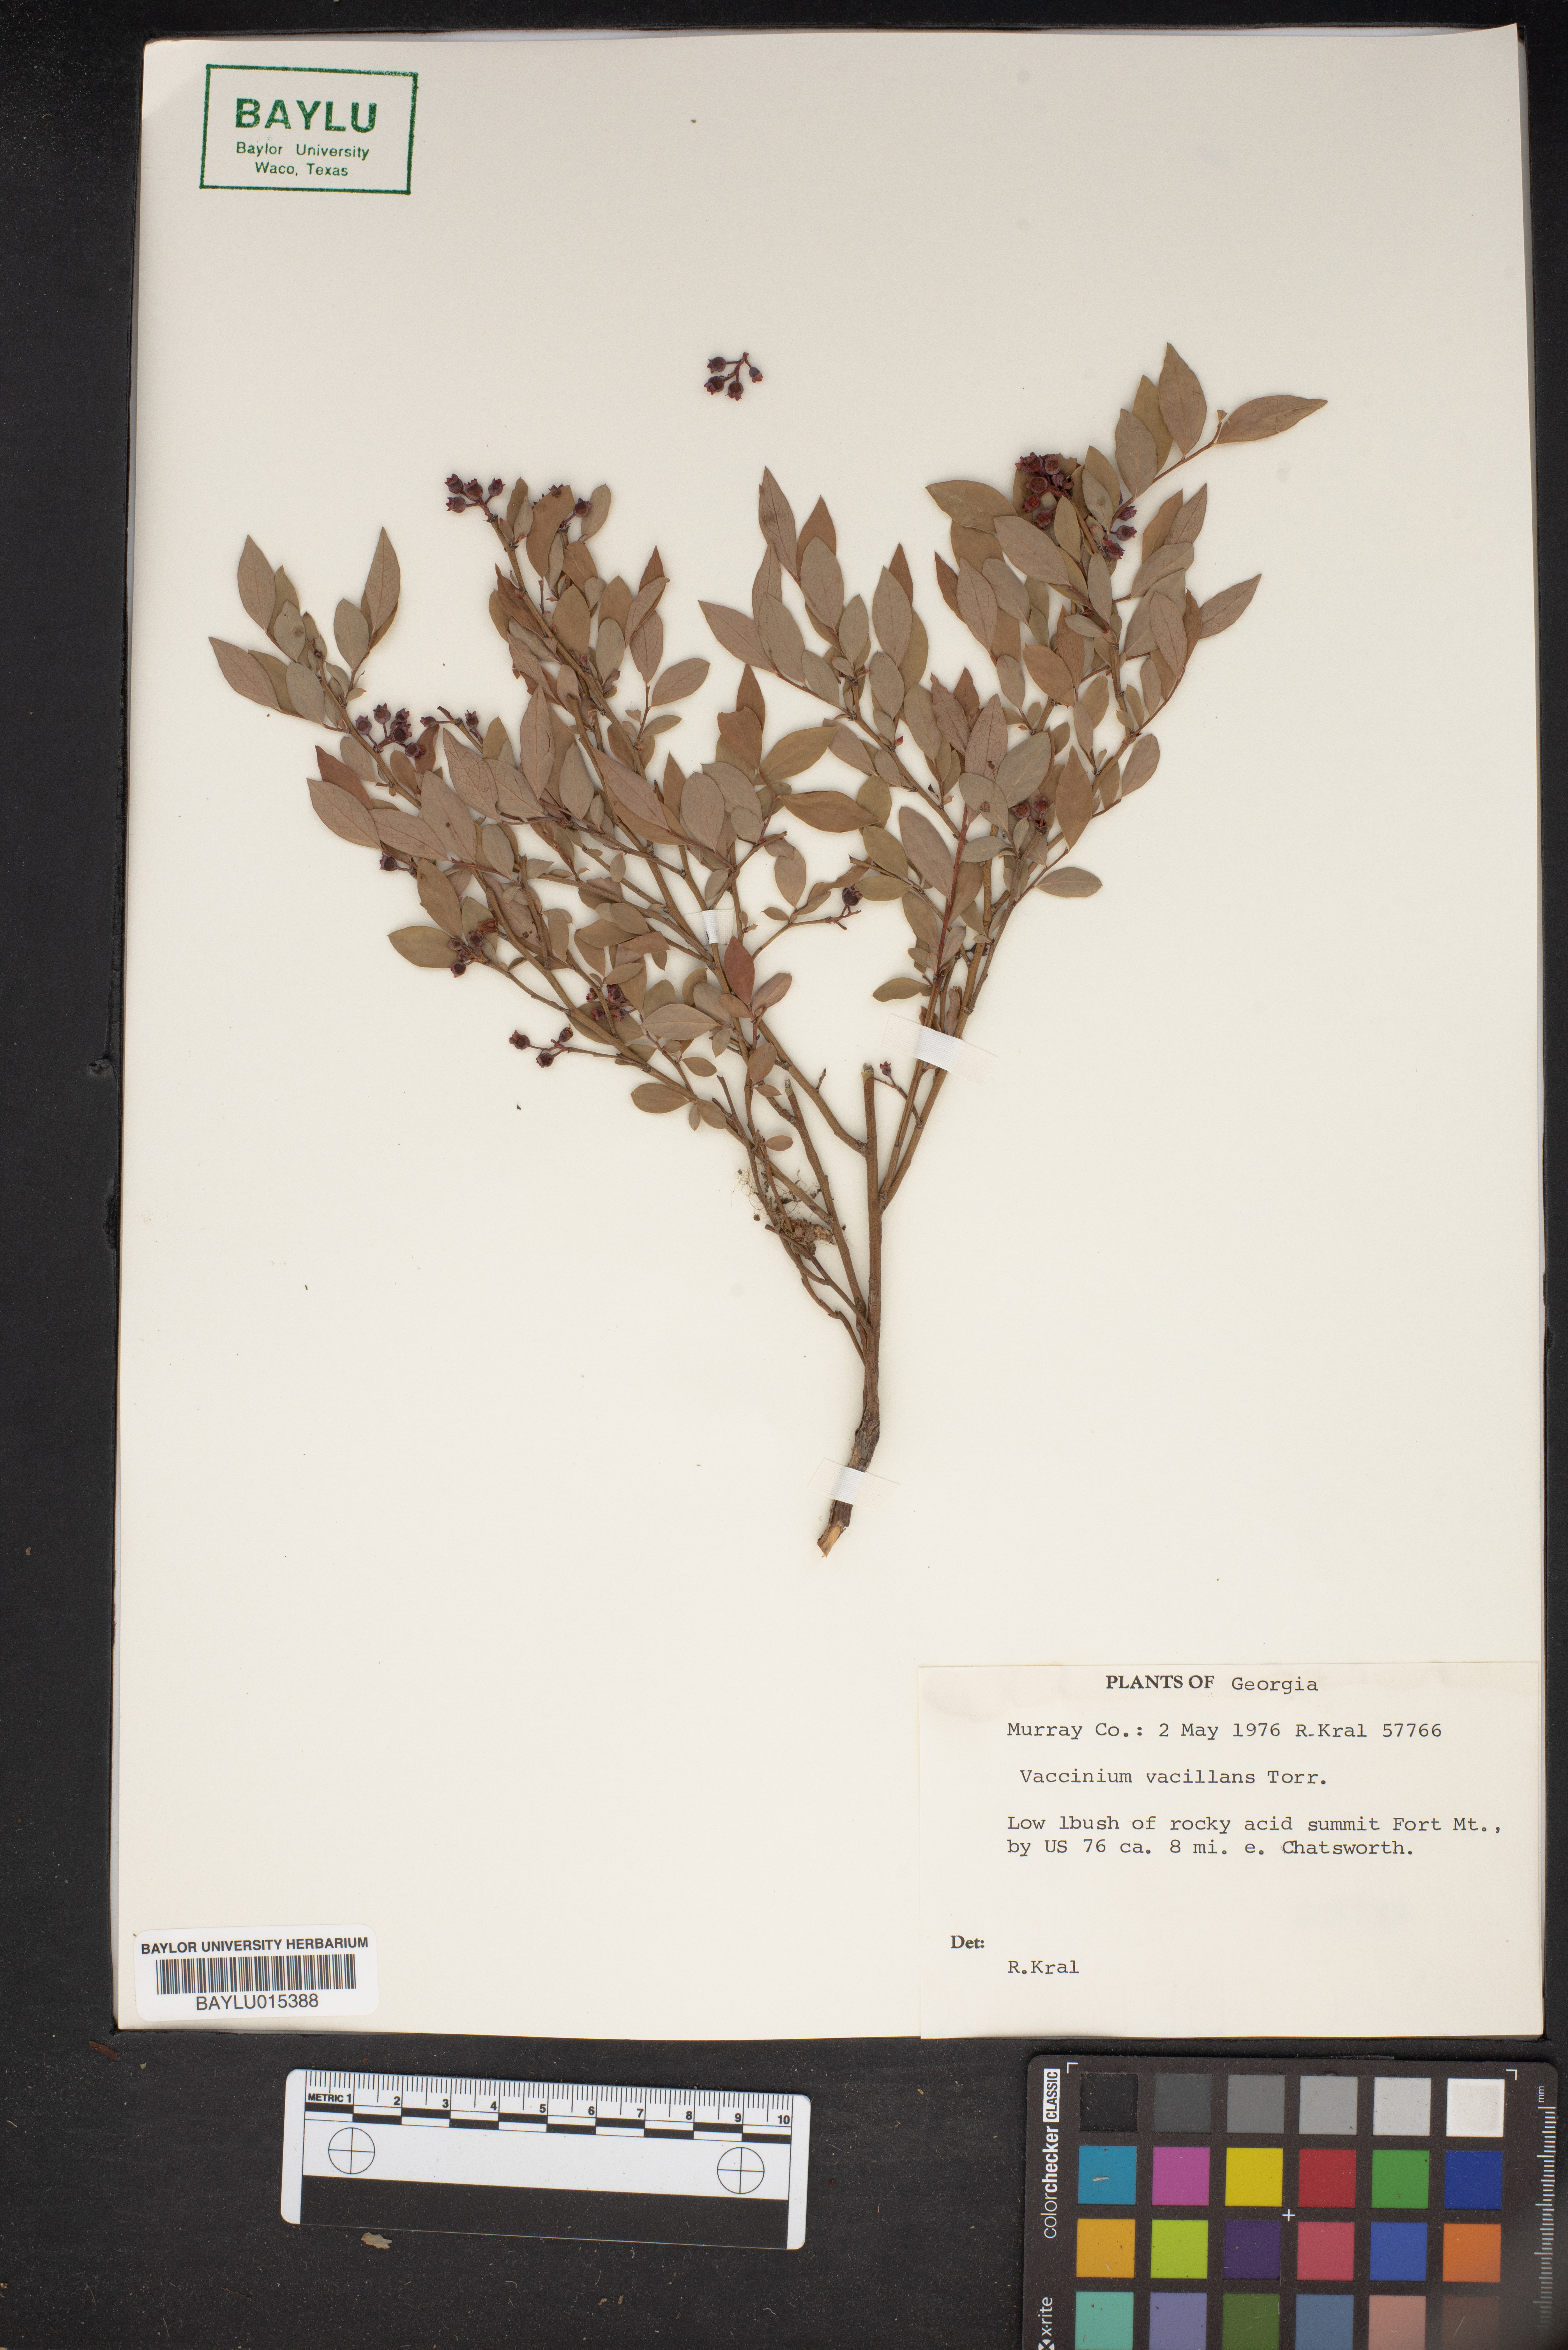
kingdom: Plantae
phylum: Tracheophyta
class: Magnoliopsida
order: Ericales
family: Ericaceae
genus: Vaccinium
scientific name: Vaccinium pallidum
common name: Blue ridge blueberry
